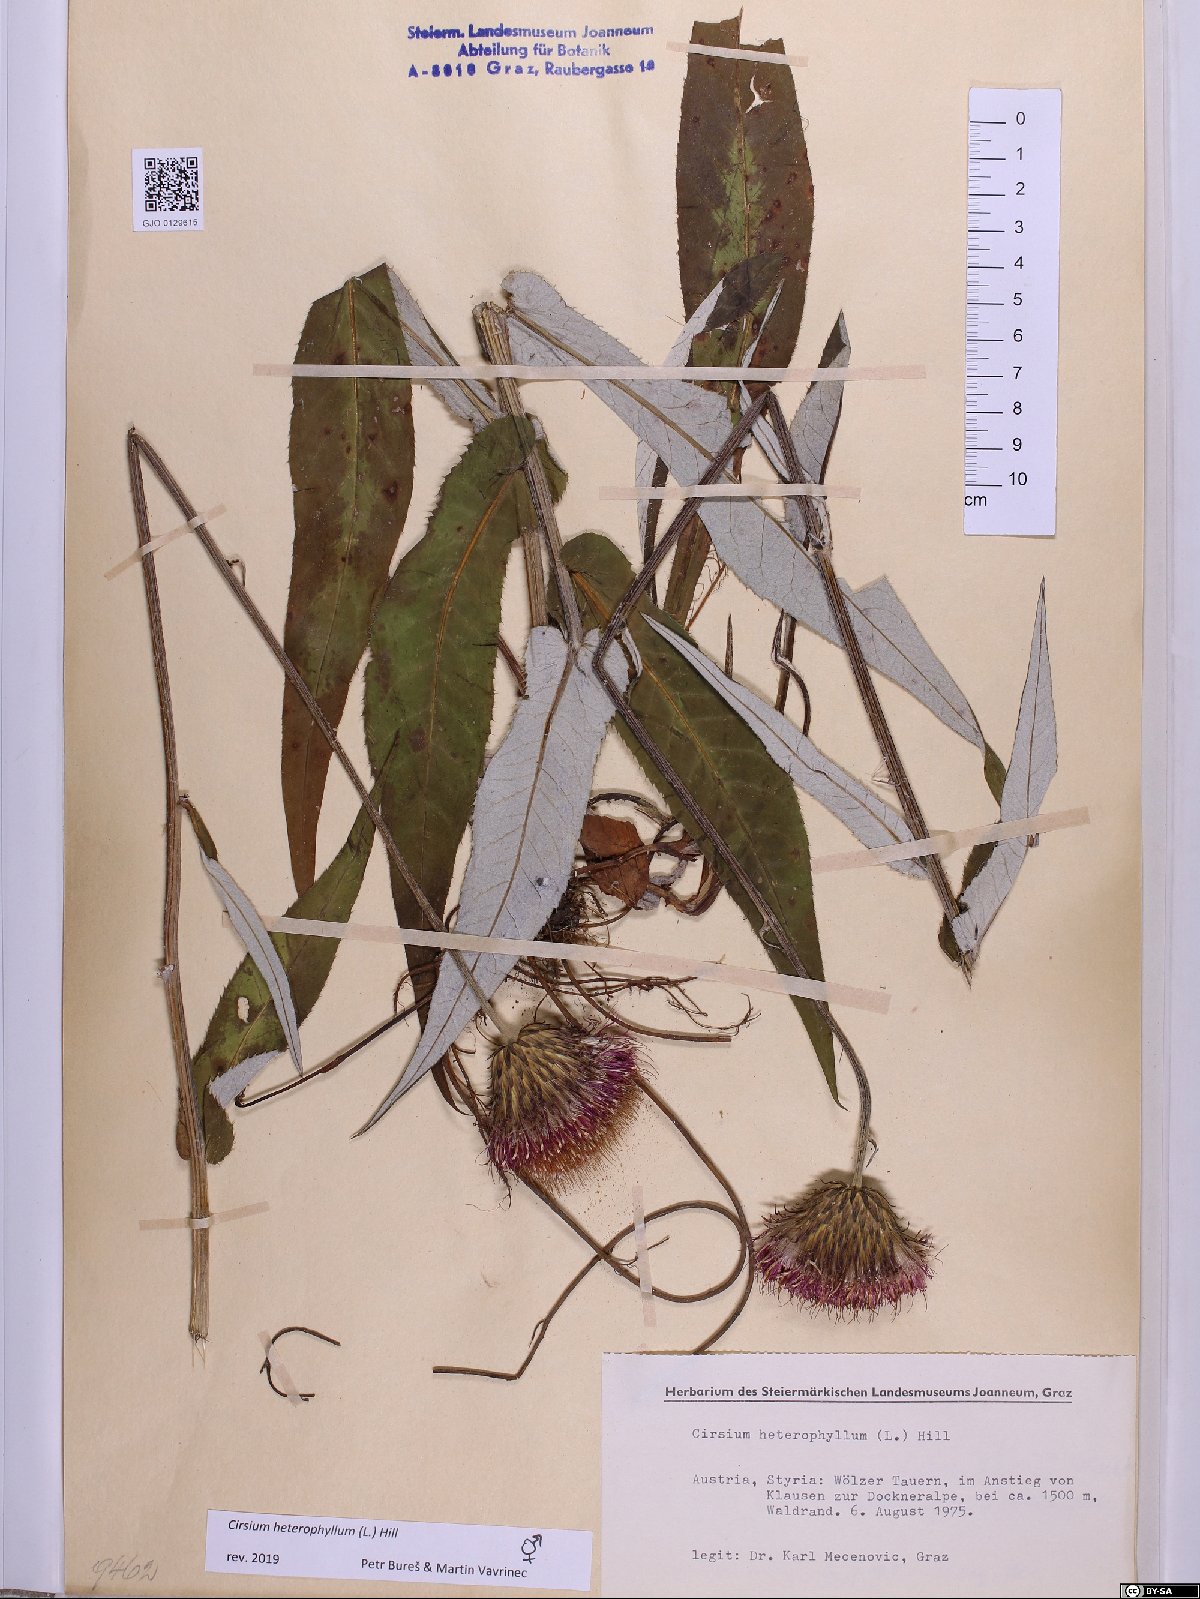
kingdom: Plantae
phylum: Tracheophyta
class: Magnoliopsida
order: Asterales
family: Asteraceae
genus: Cirsium
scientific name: Cirsium heterophyllum
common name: Melancholy thistle
